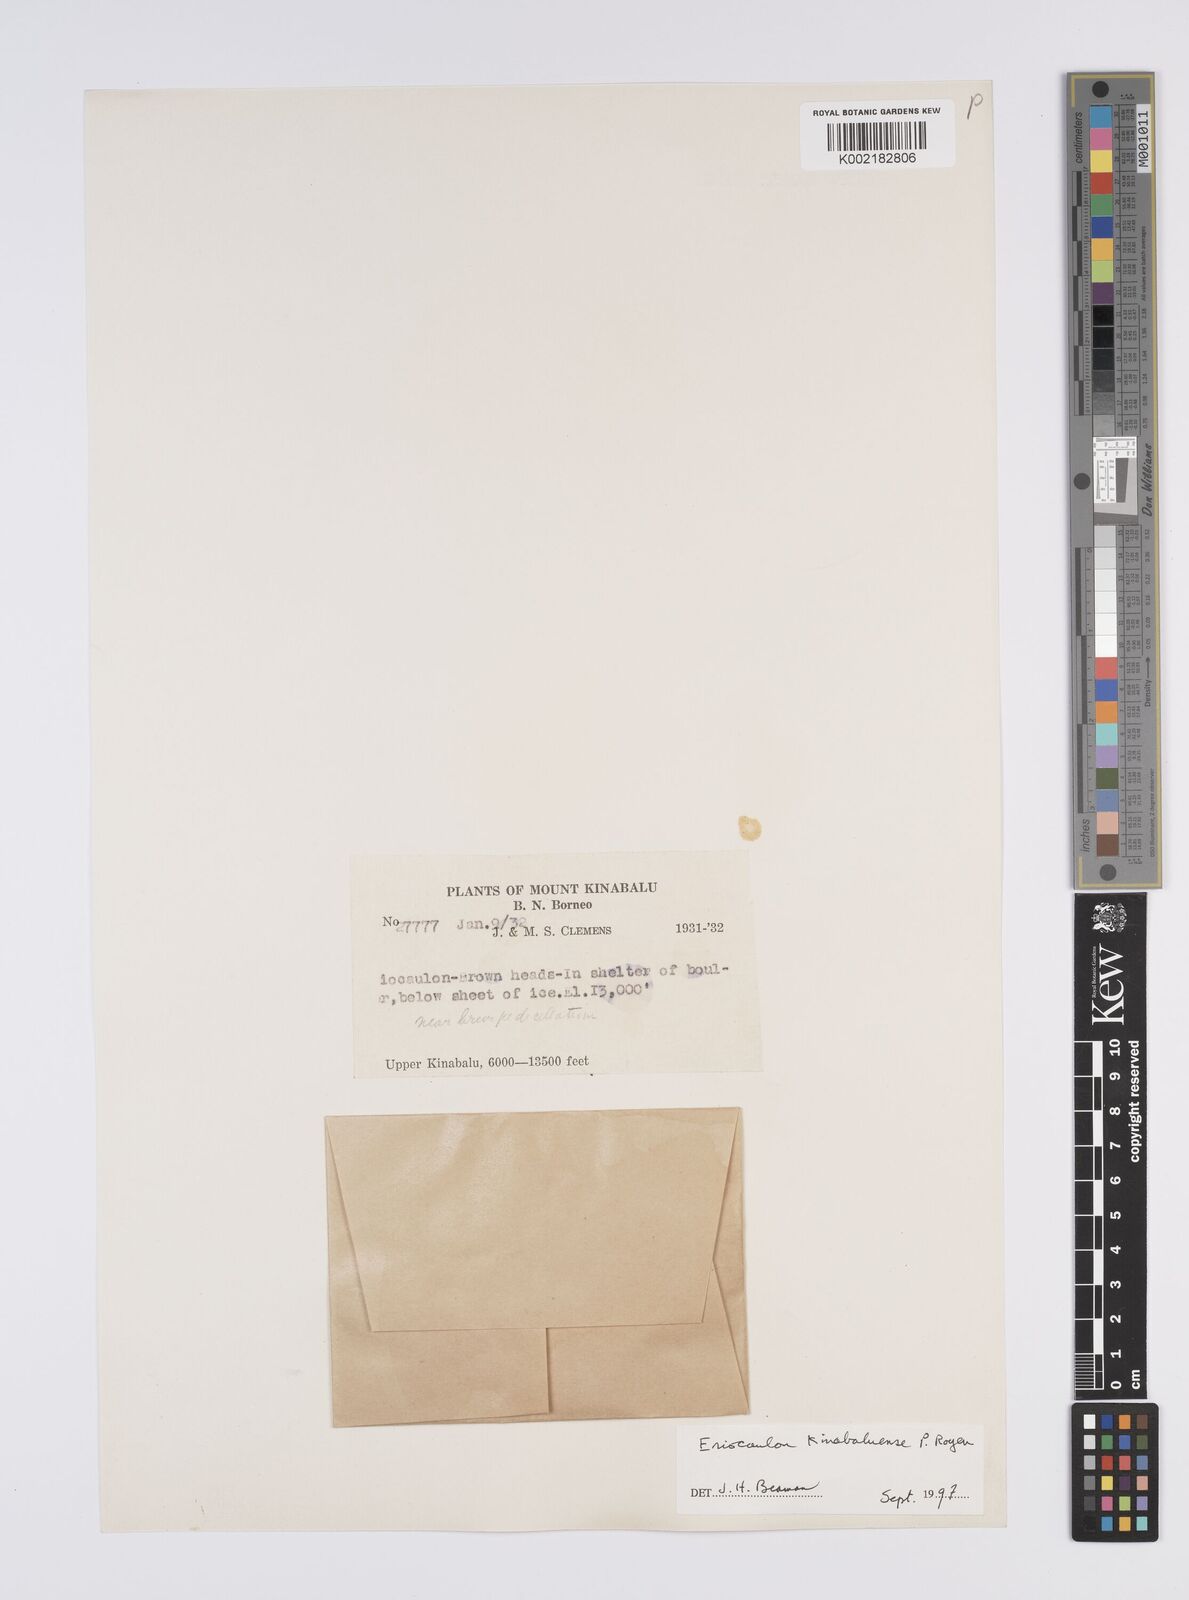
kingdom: Plantae
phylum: Tracheophyta
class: Liliopsida
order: Poales
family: Eriocaulaceae
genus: Eriocaulon
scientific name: Eriocaulon kinabaluense
